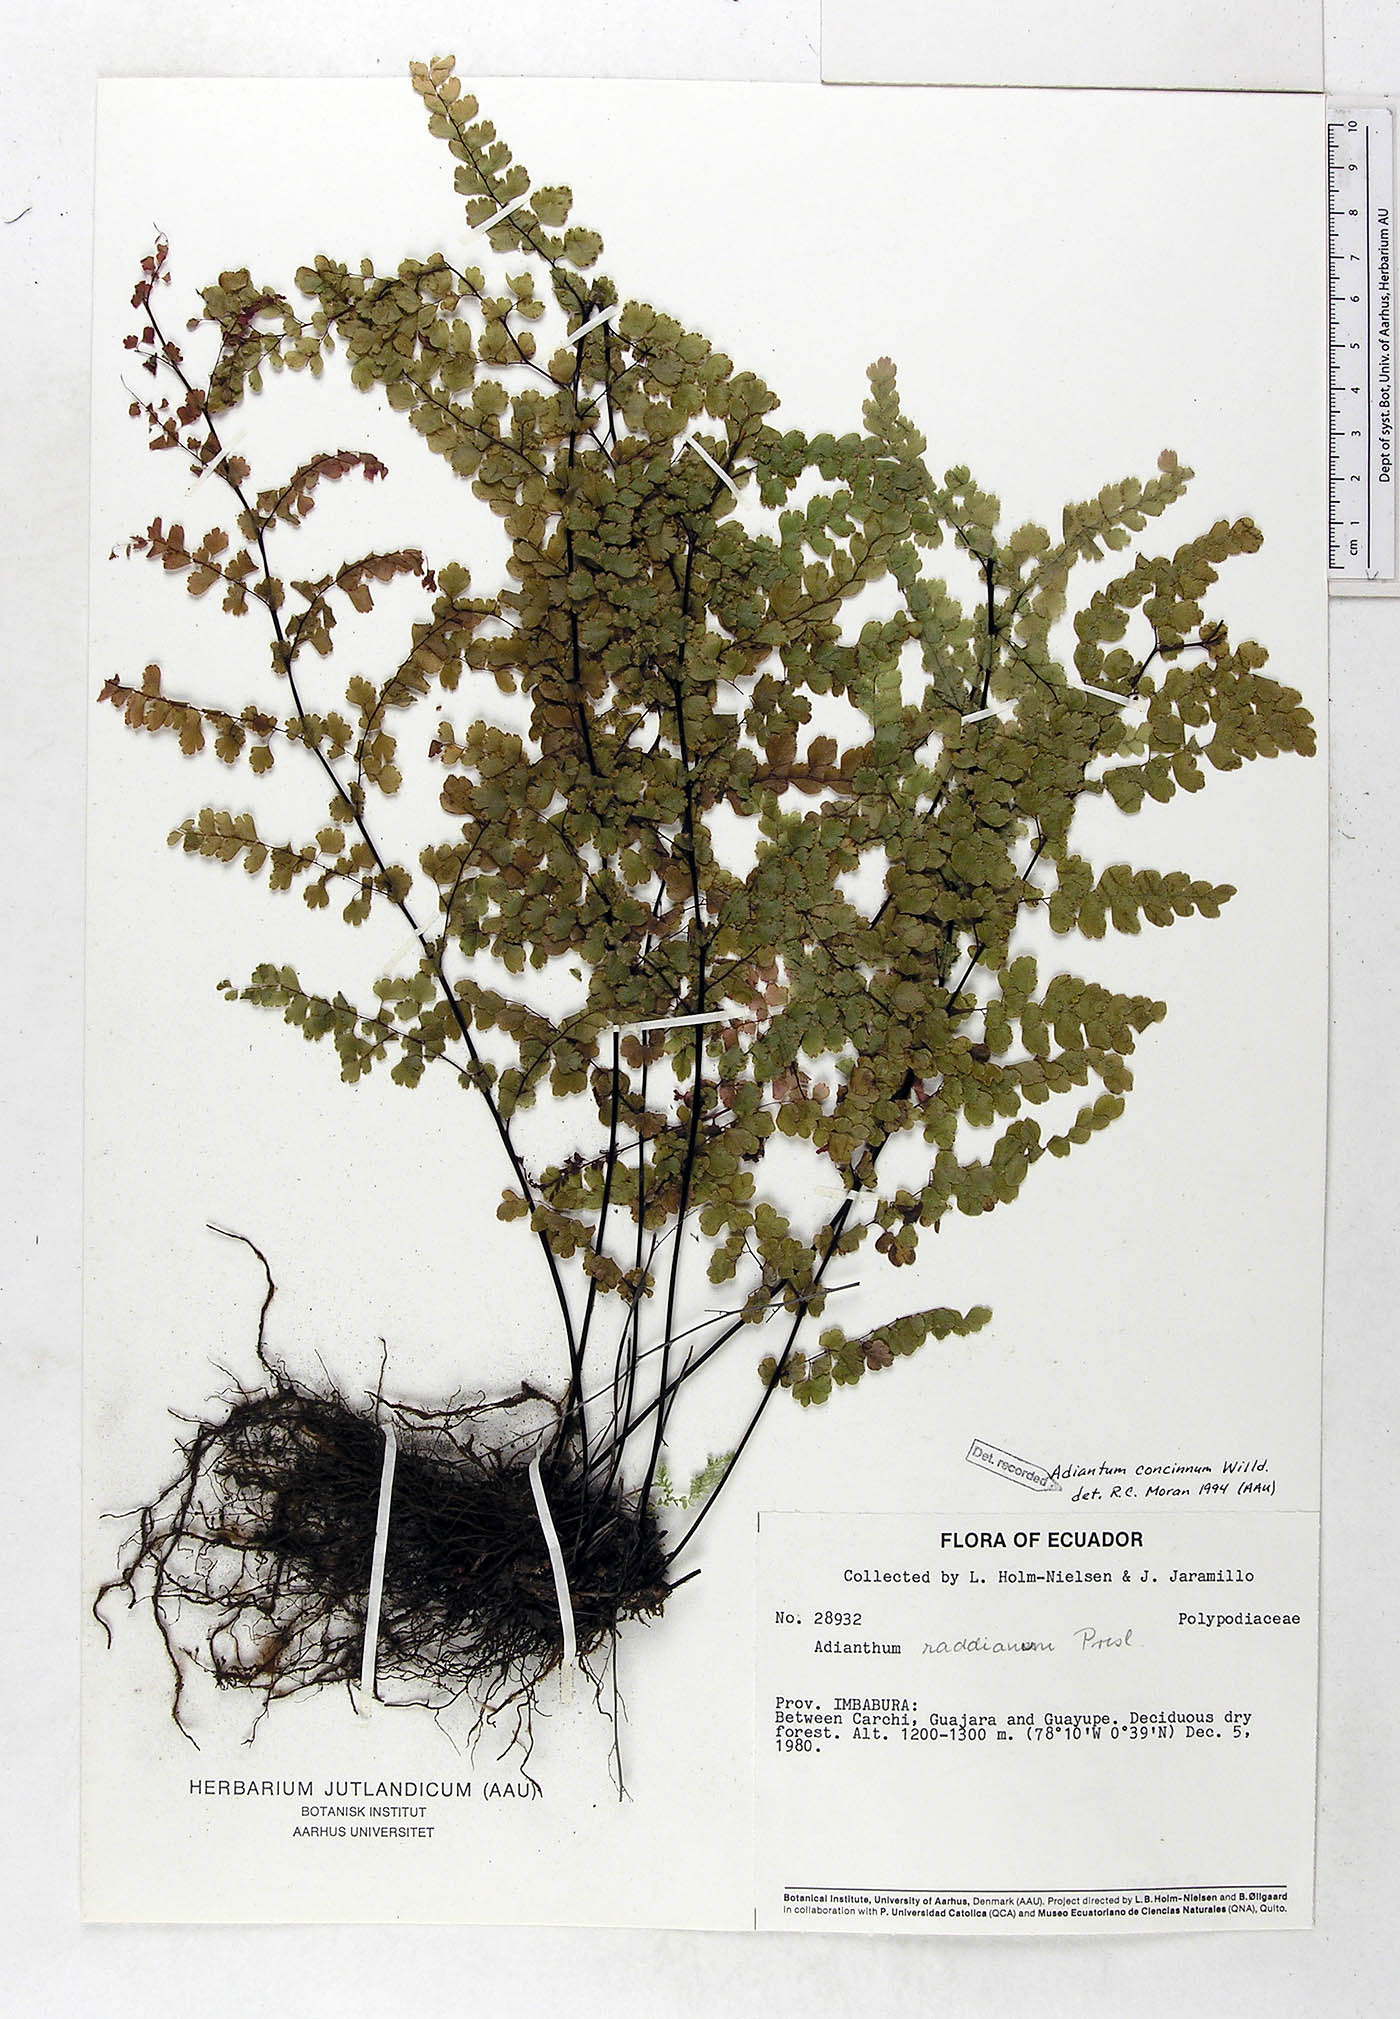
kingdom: Plantae
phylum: Tracheophyta
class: Polypodiopsida
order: Polypodiales
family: Pteridaceae
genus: Adiantum
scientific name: Adiantum concinnum
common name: Brittle maidenhair fern
